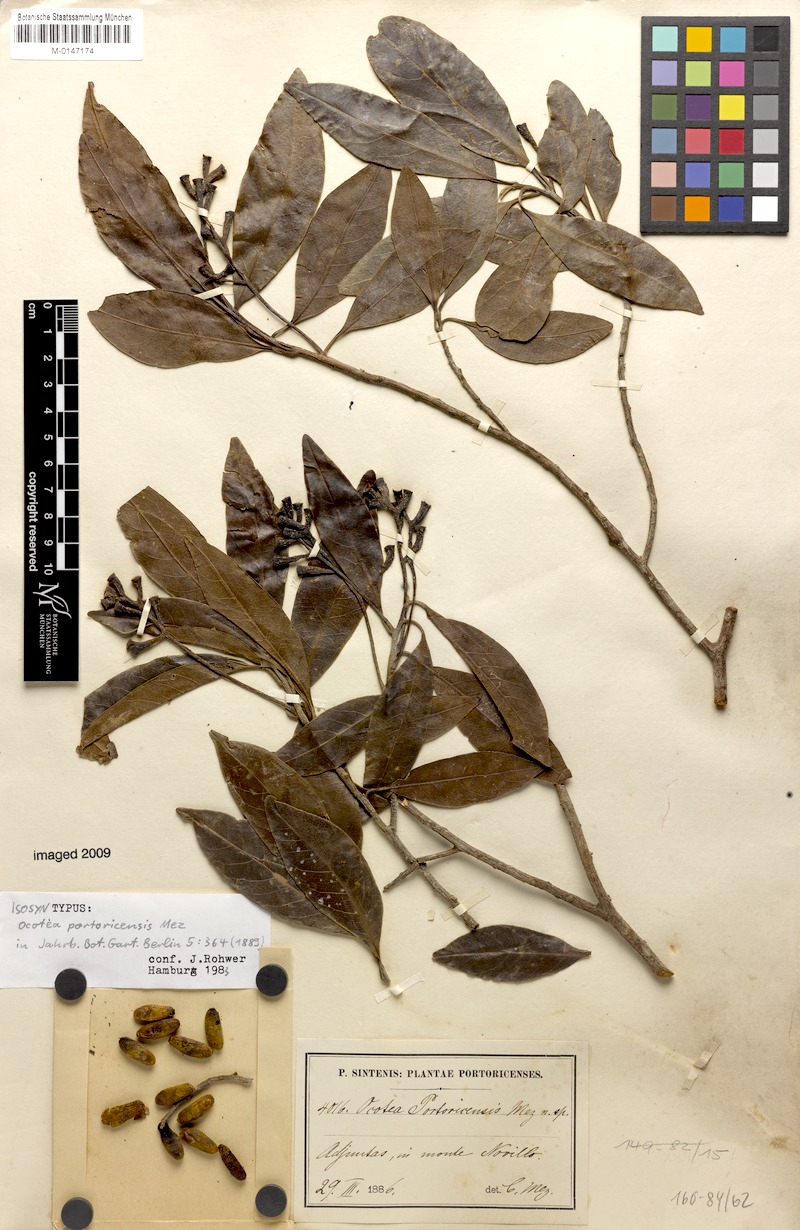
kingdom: Plantae
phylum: Tracheophyta
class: Magnoliopsida
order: Laurales
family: Lauraceae
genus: Ocotea
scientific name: Ocotea oblonga
